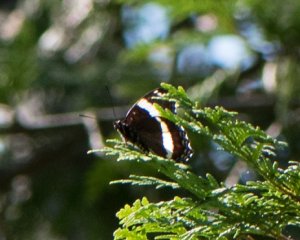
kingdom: Animalia
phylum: Arthropoda
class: Insecta
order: Lepidoptera
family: Nymphalidae
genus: Limenitis
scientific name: Limenitis arthemis
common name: Red-spotted Admiral
